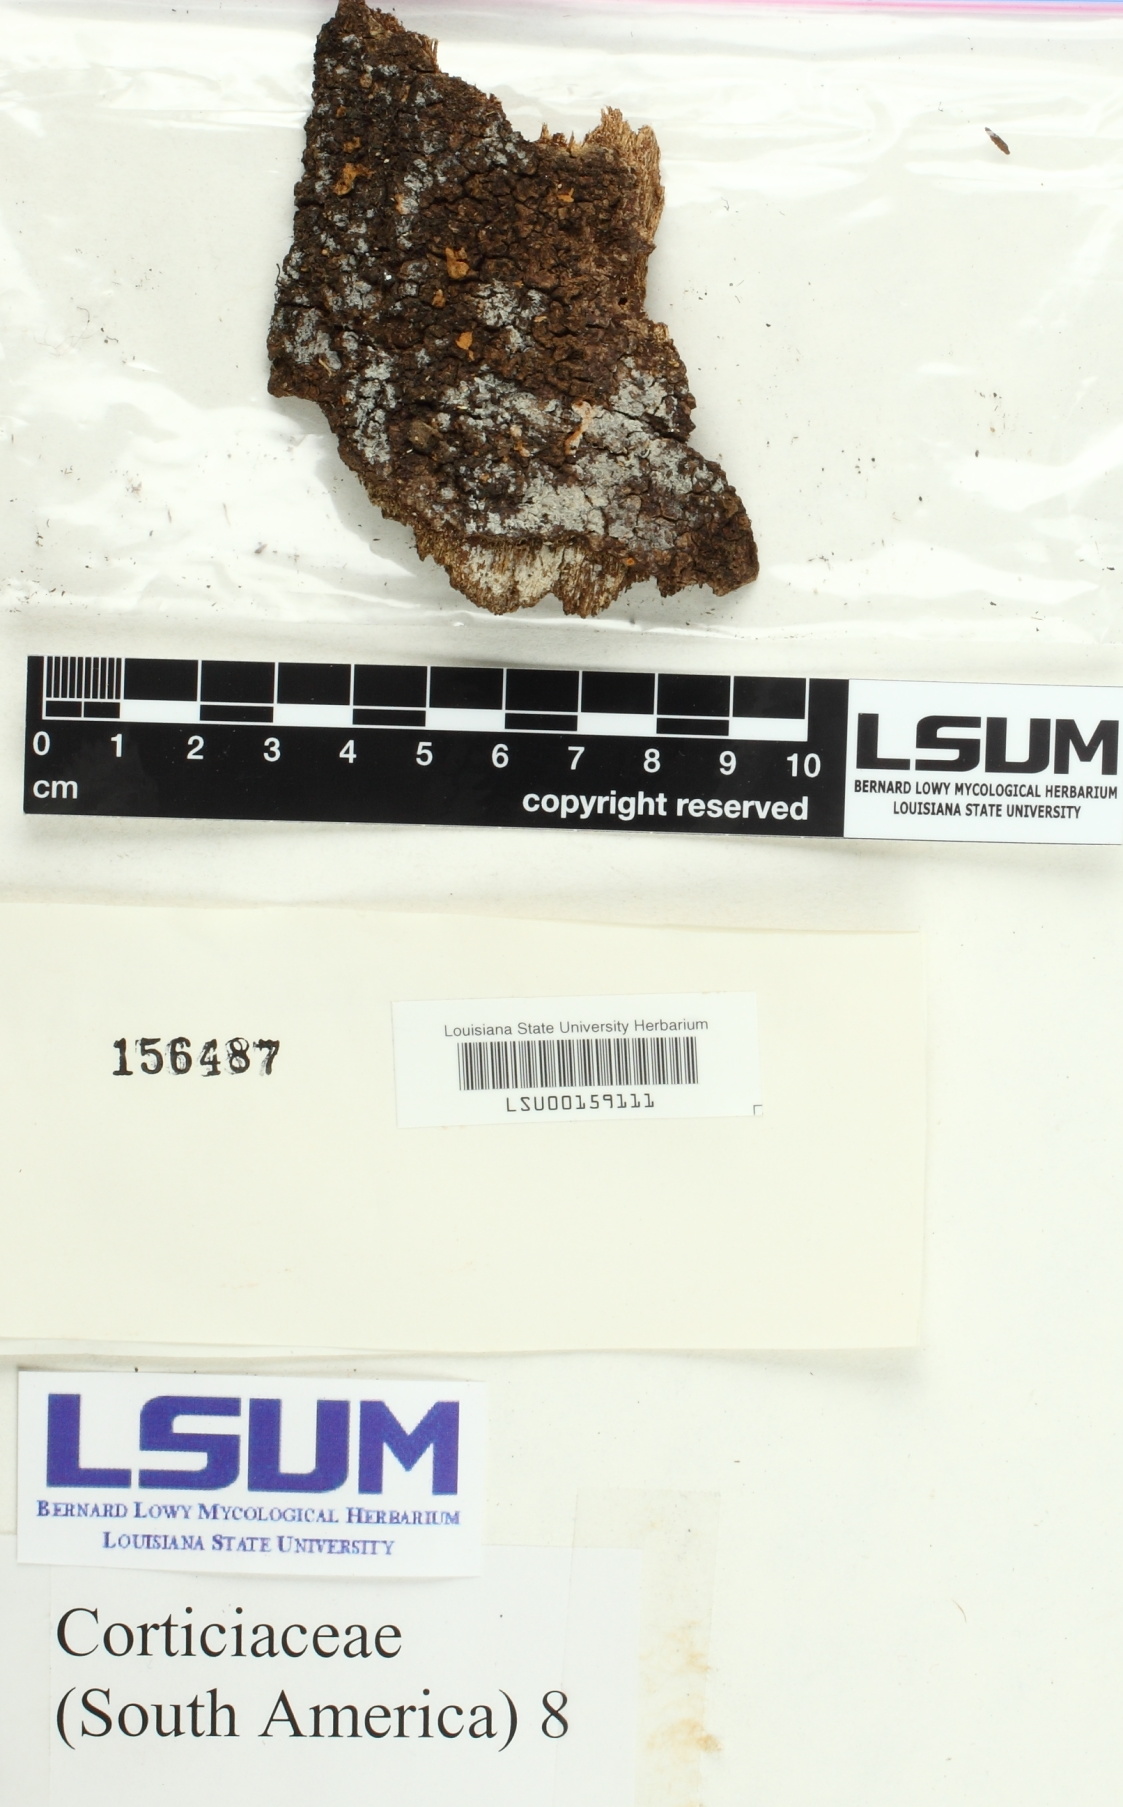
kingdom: Fungi
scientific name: Fungi
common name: Fungi
